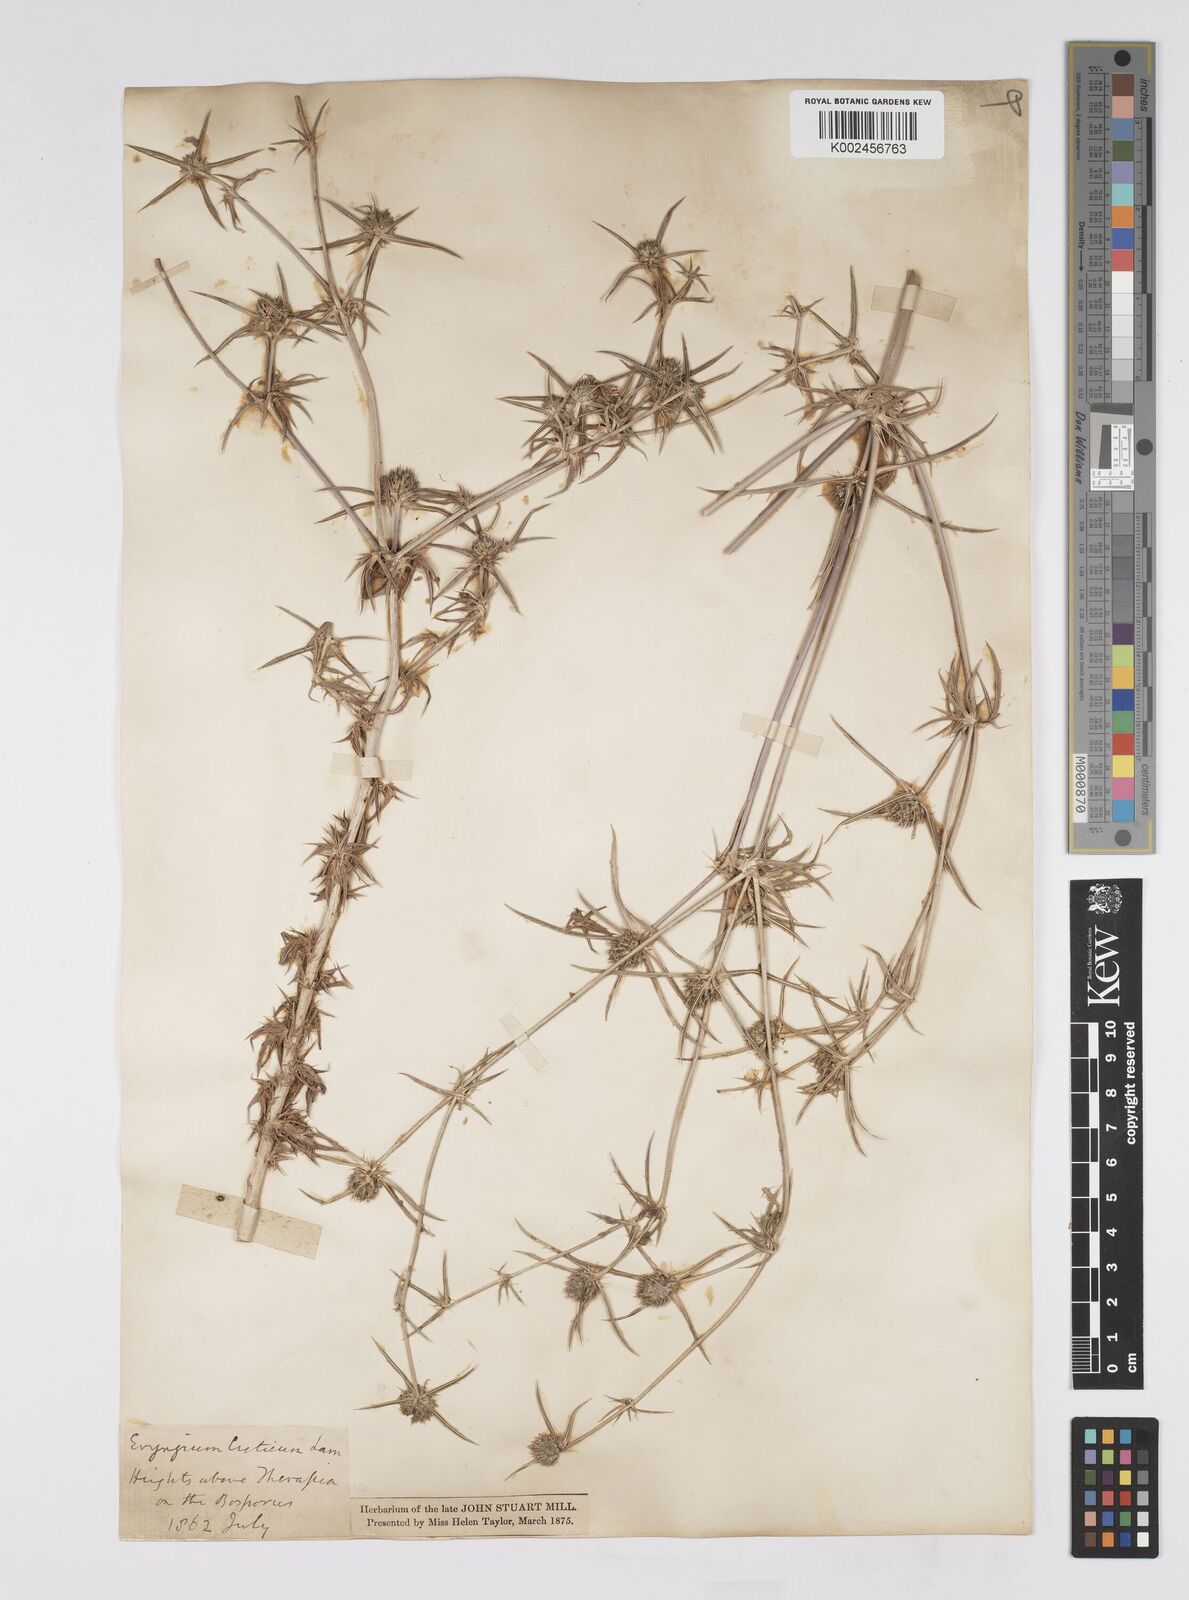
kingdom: Plantae
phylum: Tracheophyta
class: Magnoliopsida
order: Apiales
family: Apiaceae
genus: Eryngium
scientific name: Eryngium creticum
